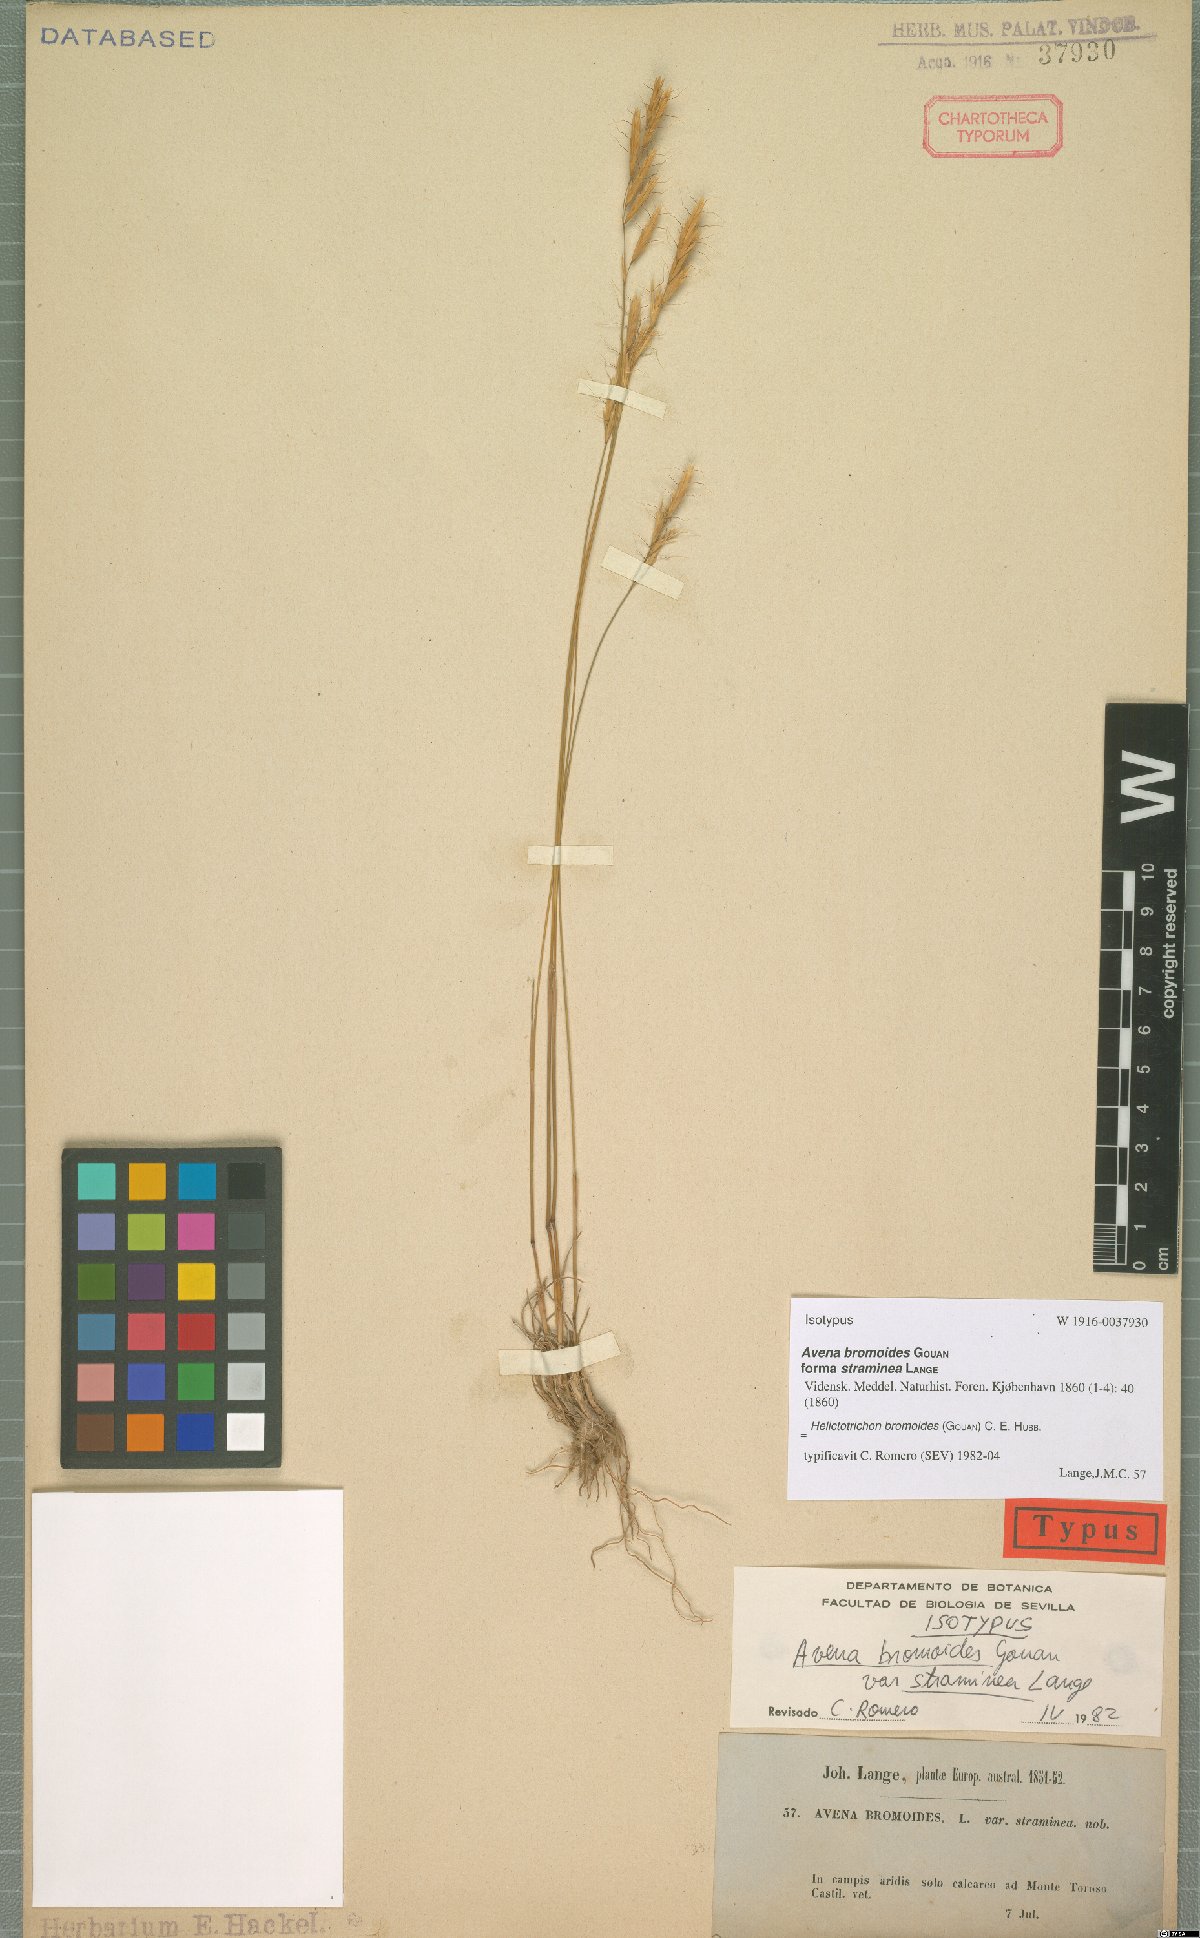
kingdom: Plantae
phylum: Tracheophyta
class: Liliopsida
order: Poales
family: Poaceae
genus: Helictochloa
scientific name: Helictochloa bromoides
